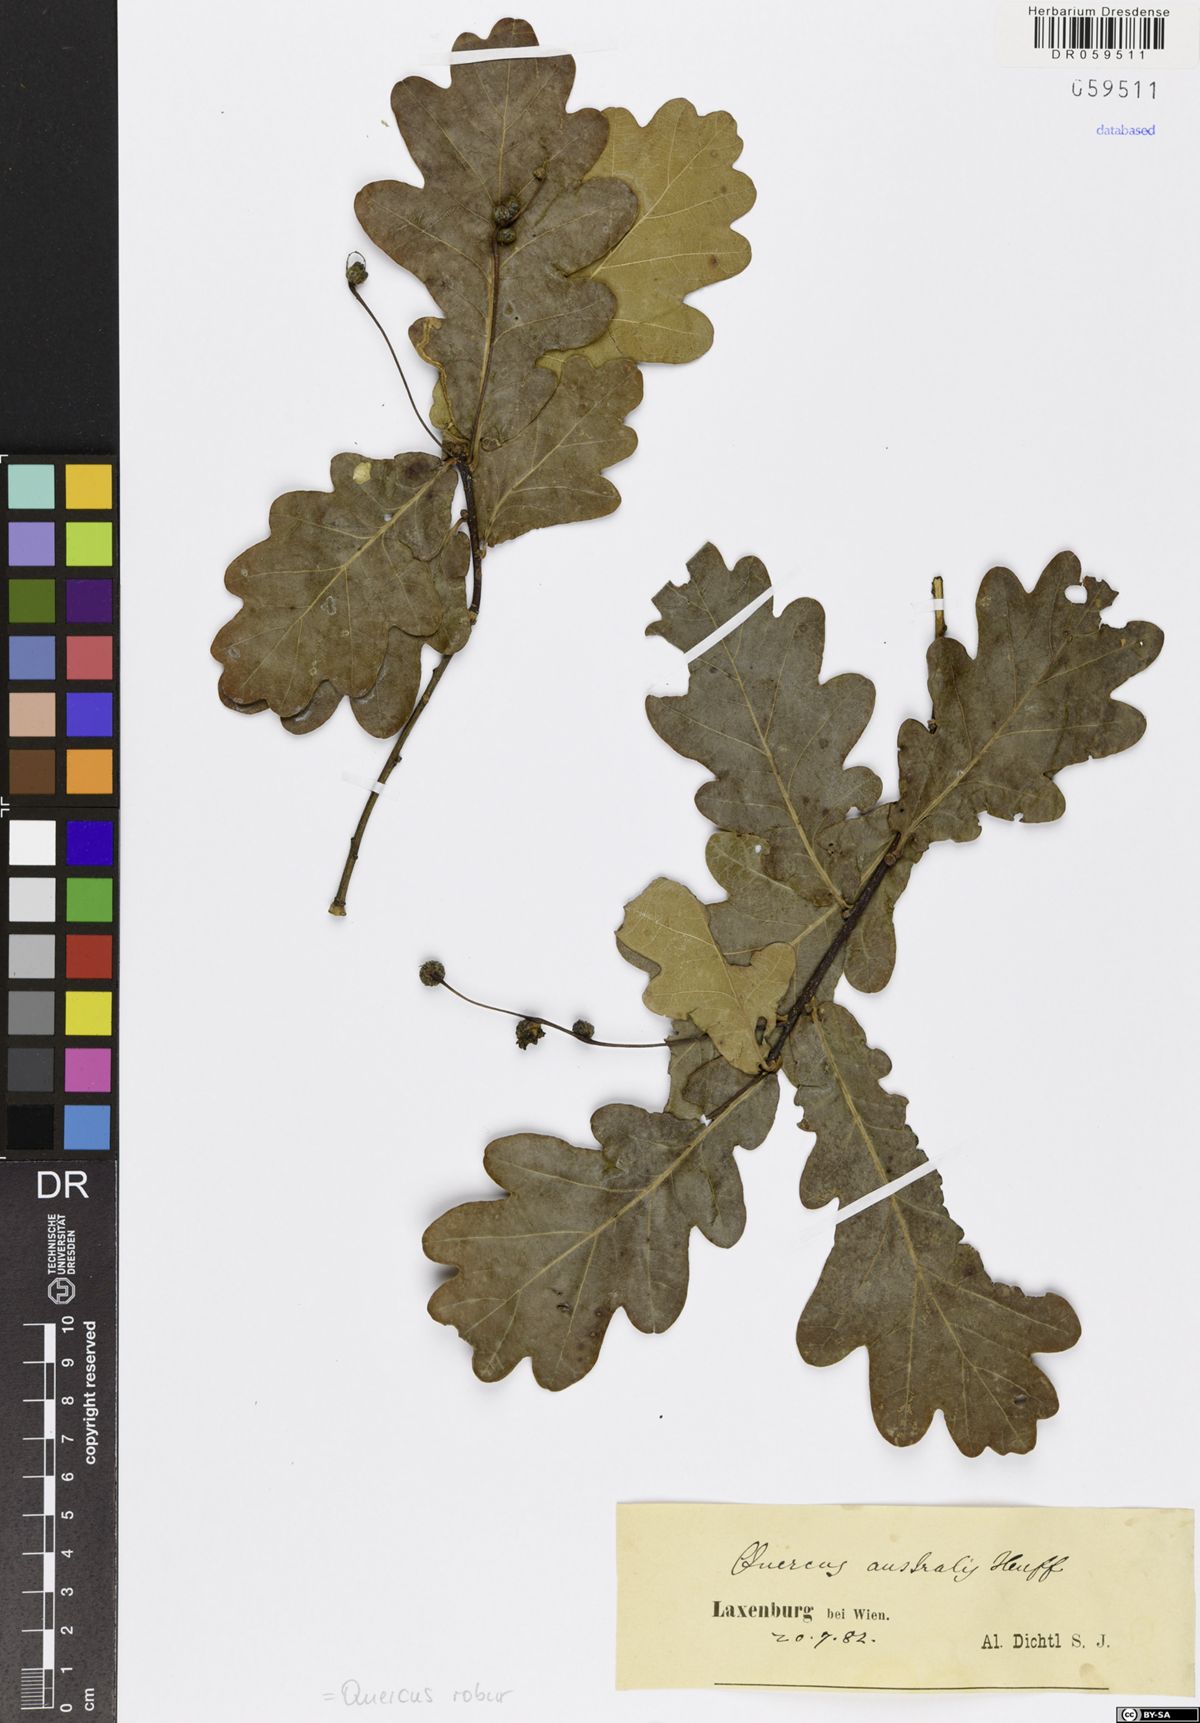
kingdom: Plantae
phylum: Tracheophyta
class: Magnoliopsida
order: Fagales
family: Fagaceae
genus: Quercus
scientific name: Quercus robur
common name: Pedunculate oak
